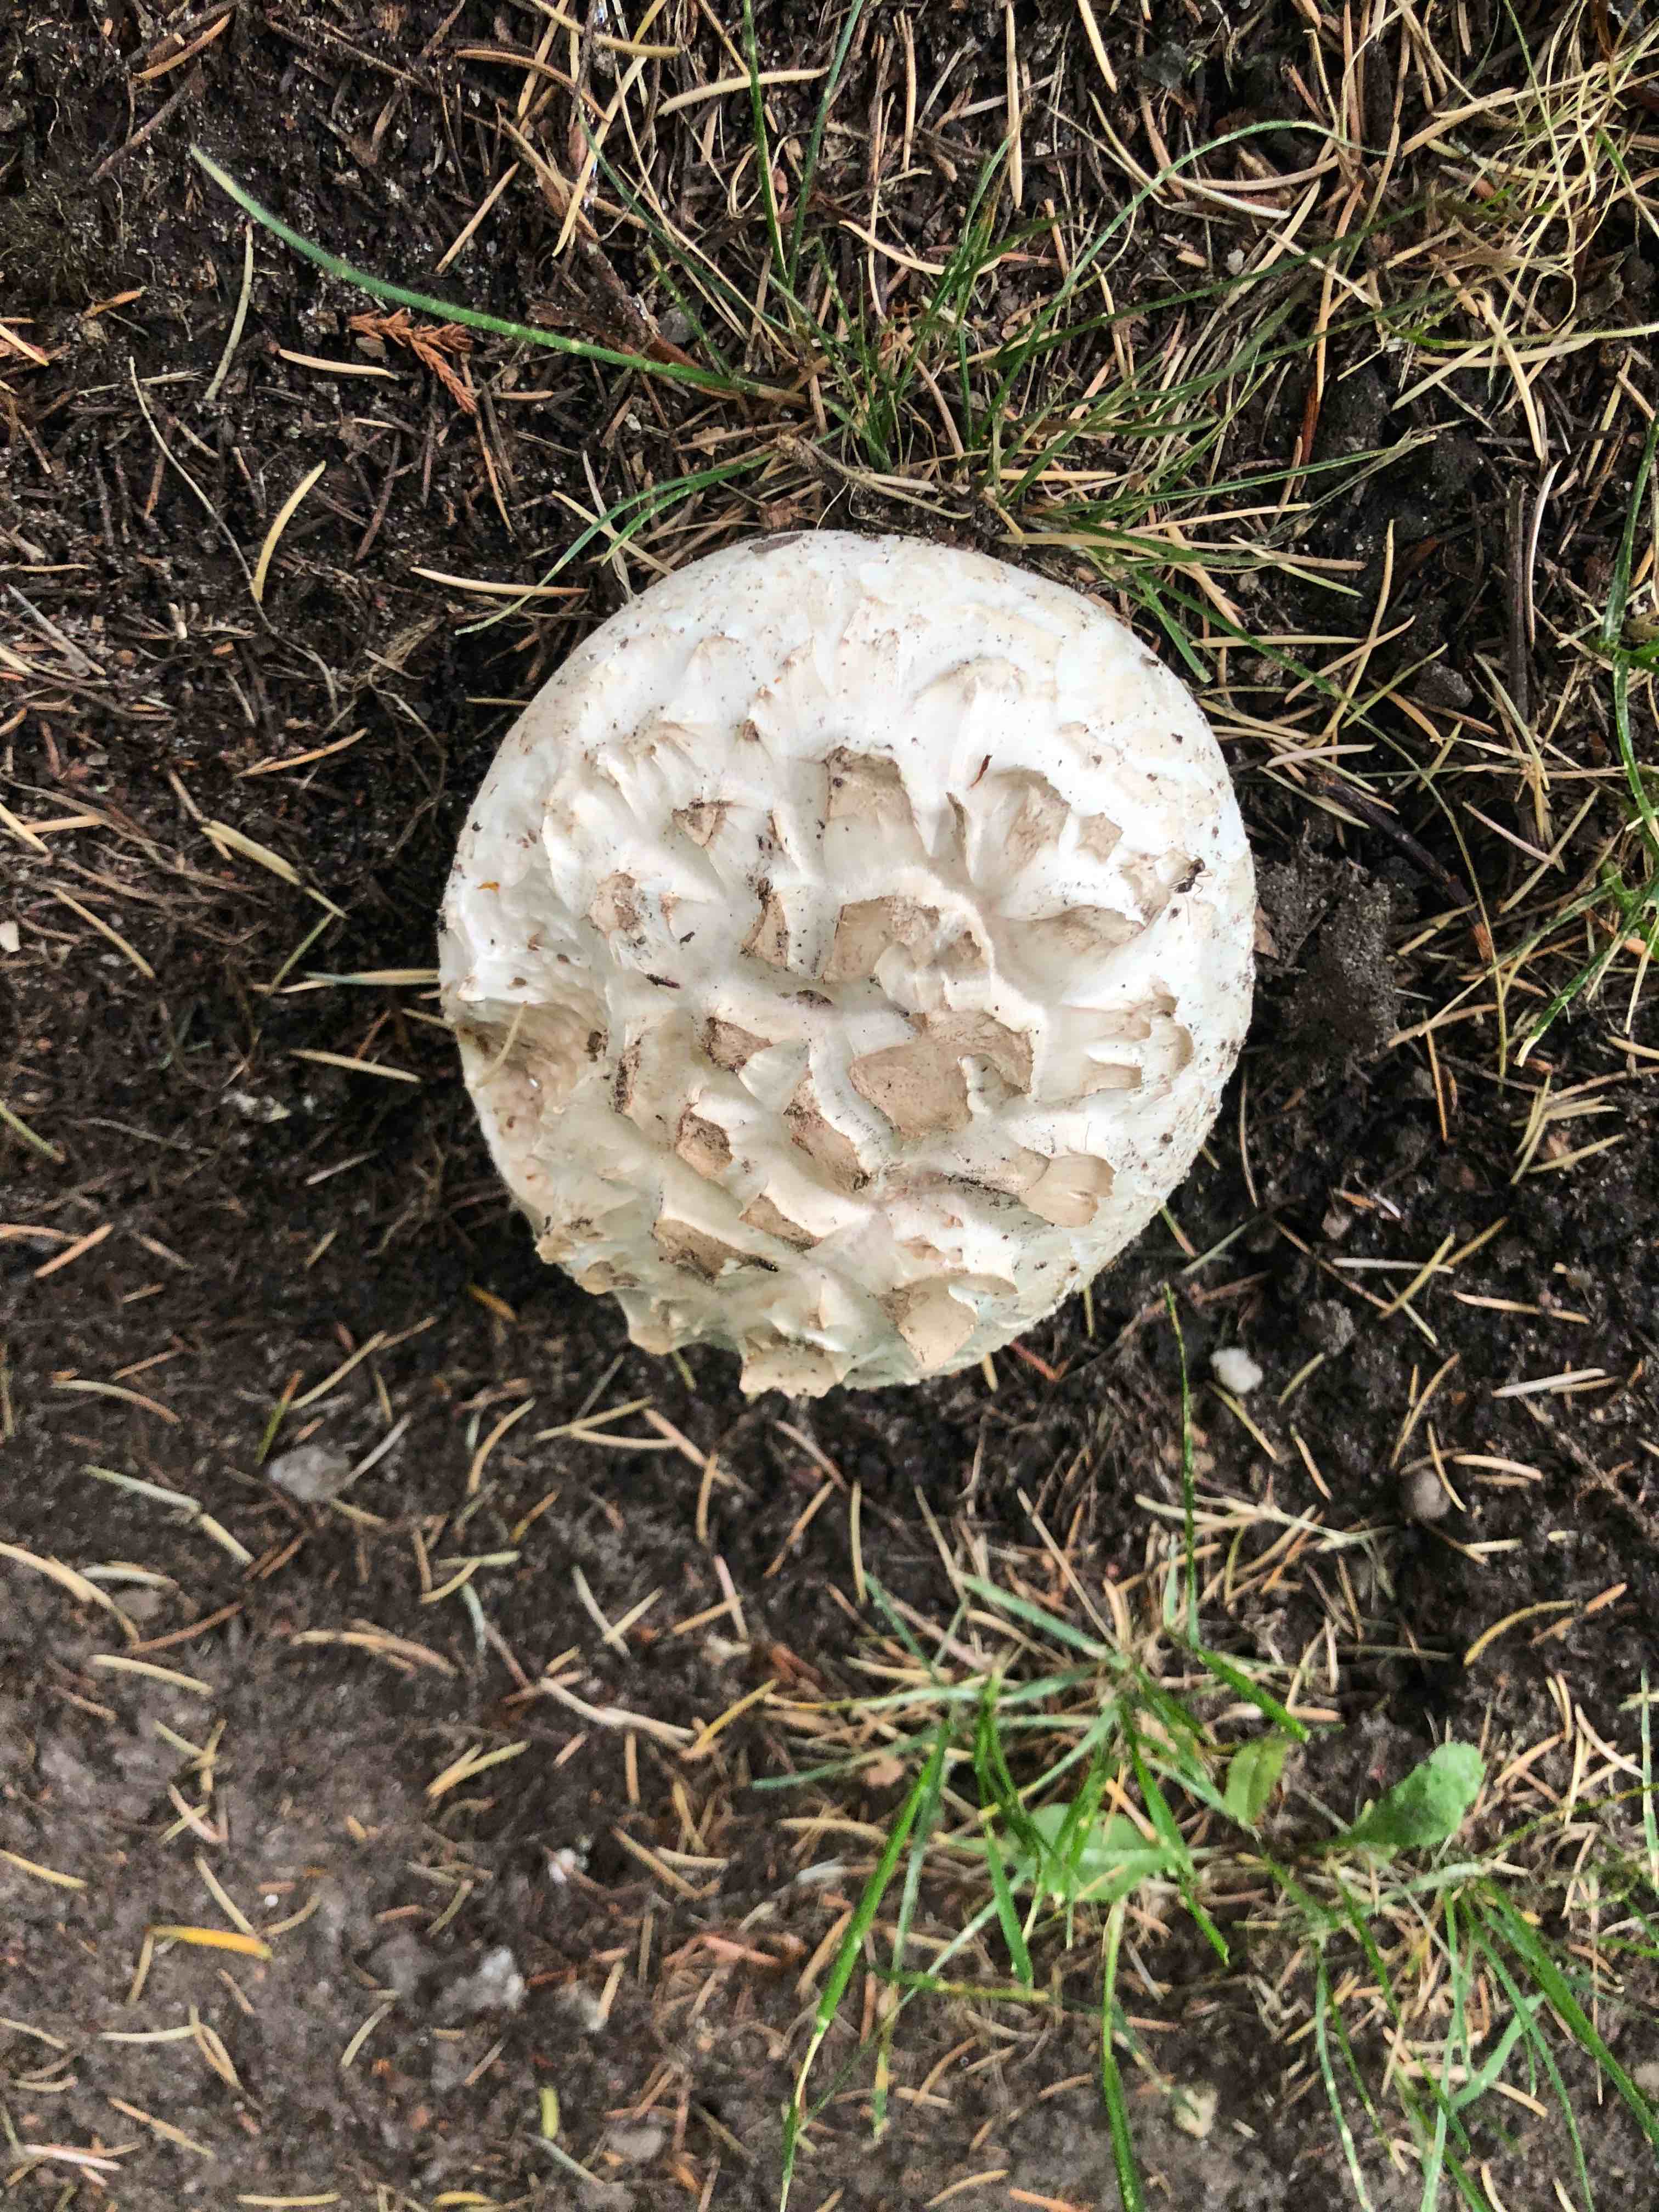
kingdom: Fungi
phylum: Basidiomycota
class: Agaricomycetes
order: Agaricales
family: Agaricaceae
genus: Agaricus
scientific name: Agaricus bernardii
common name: strandengs-champignon
